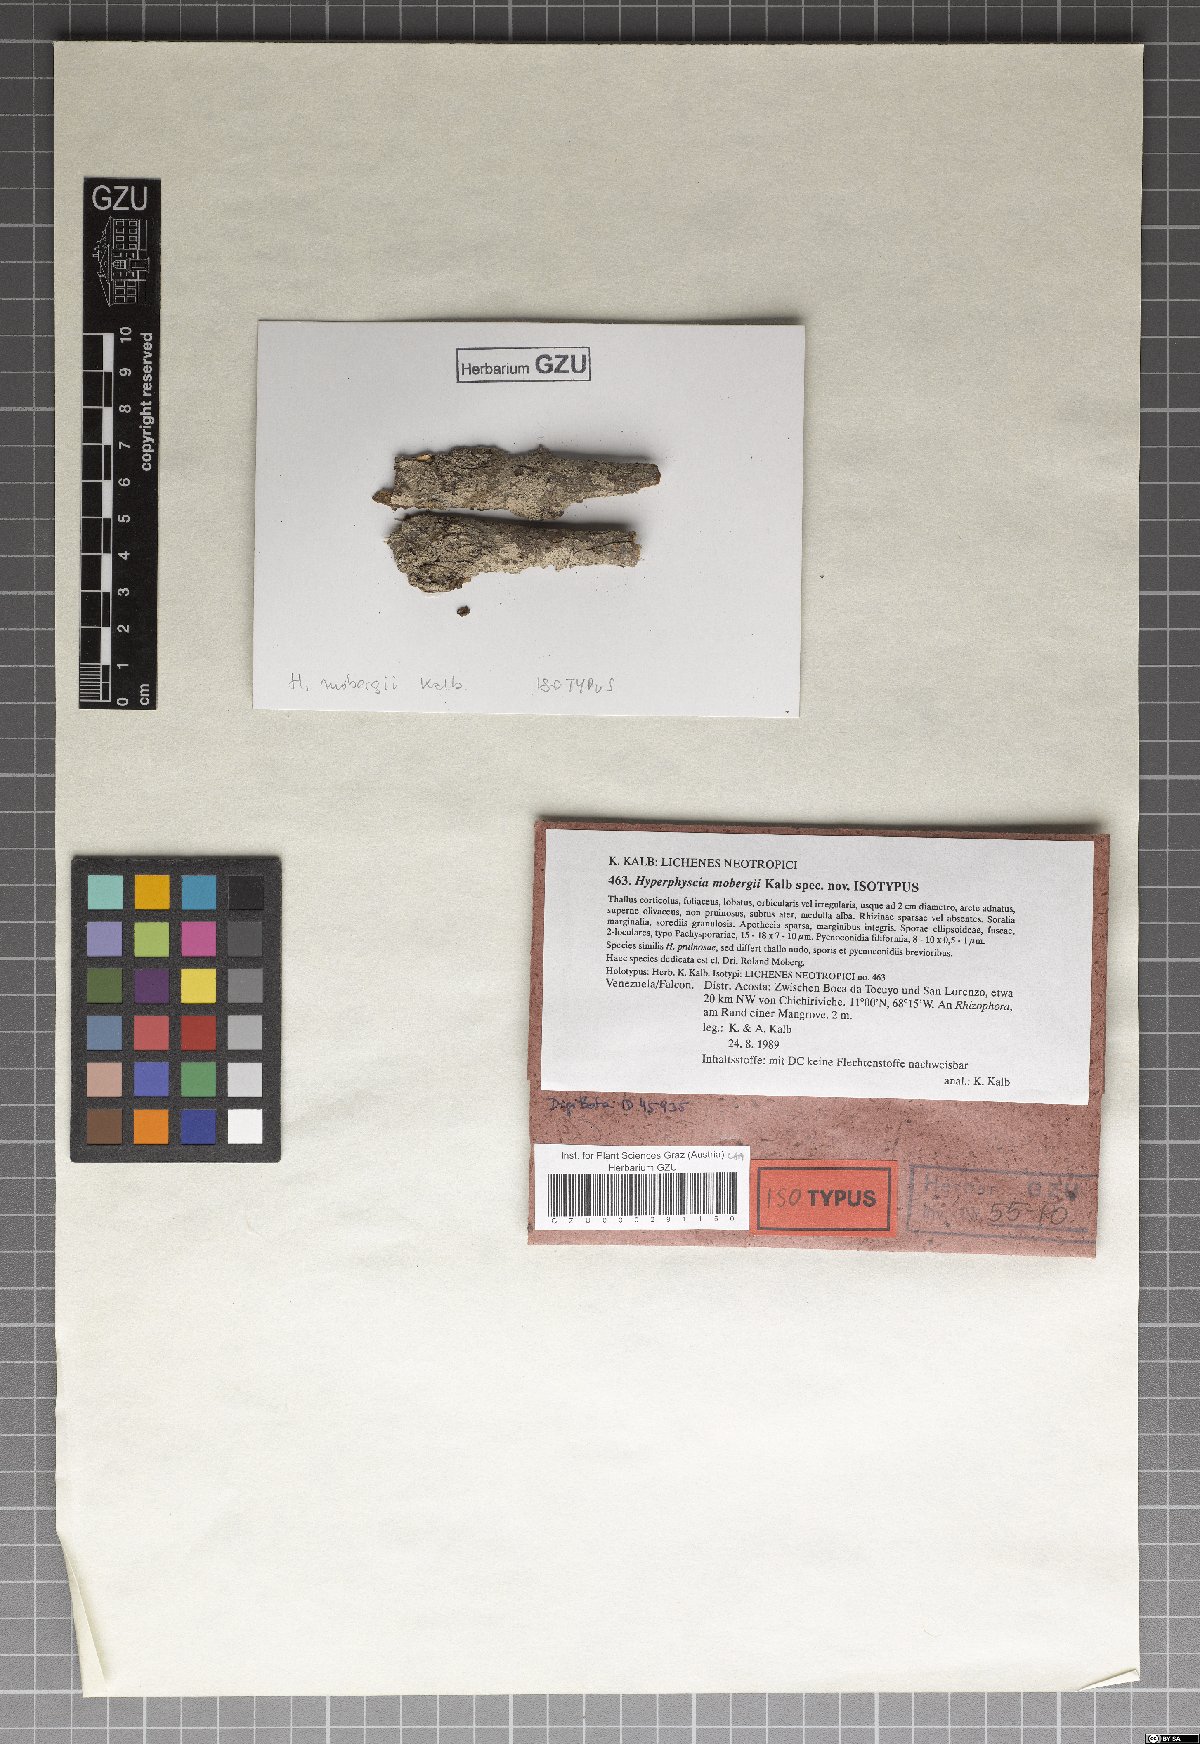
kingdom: Fungi
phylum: Ascomycota
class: Lecanoromycetes
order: Caliciales
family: Physciaceae
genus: Hyperphyscia
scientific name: Hyperphyscia mobergii
